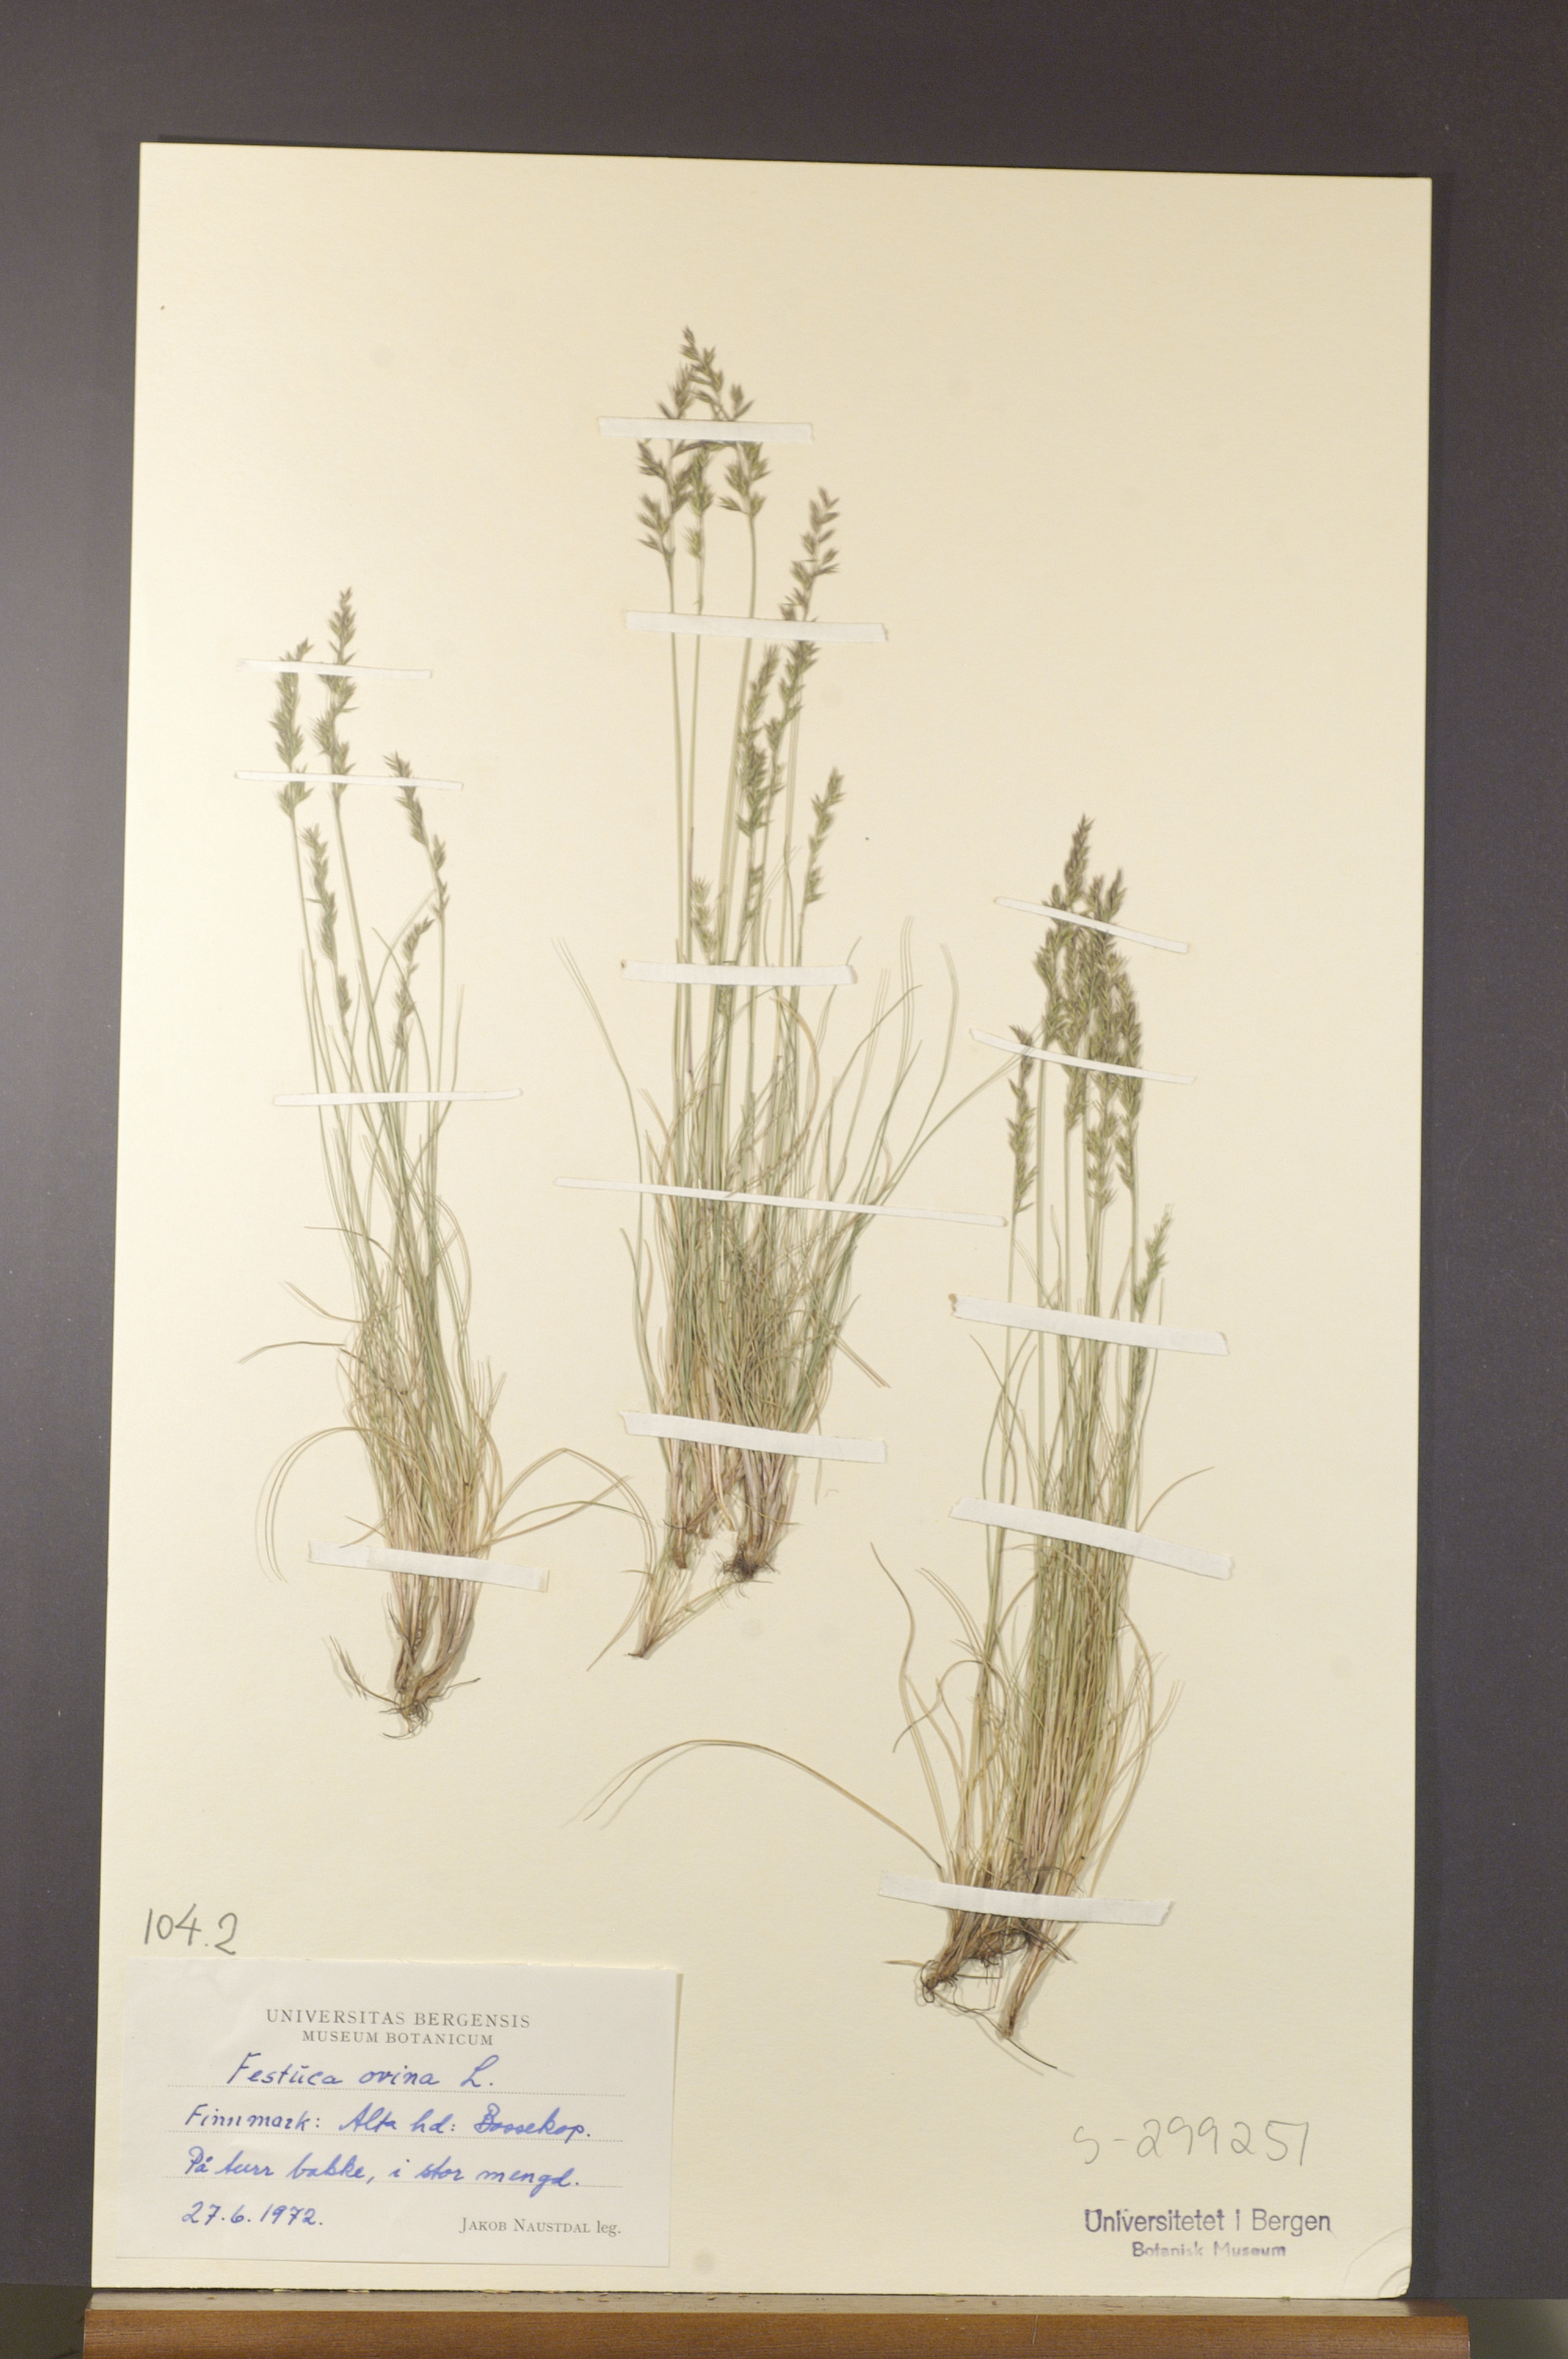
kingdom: Plantae
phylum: Tracheophyta
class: Liliopsida
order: Poales
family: Poaceae
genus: Festuca
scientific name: Festuca ovina
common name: Sheep fescue
